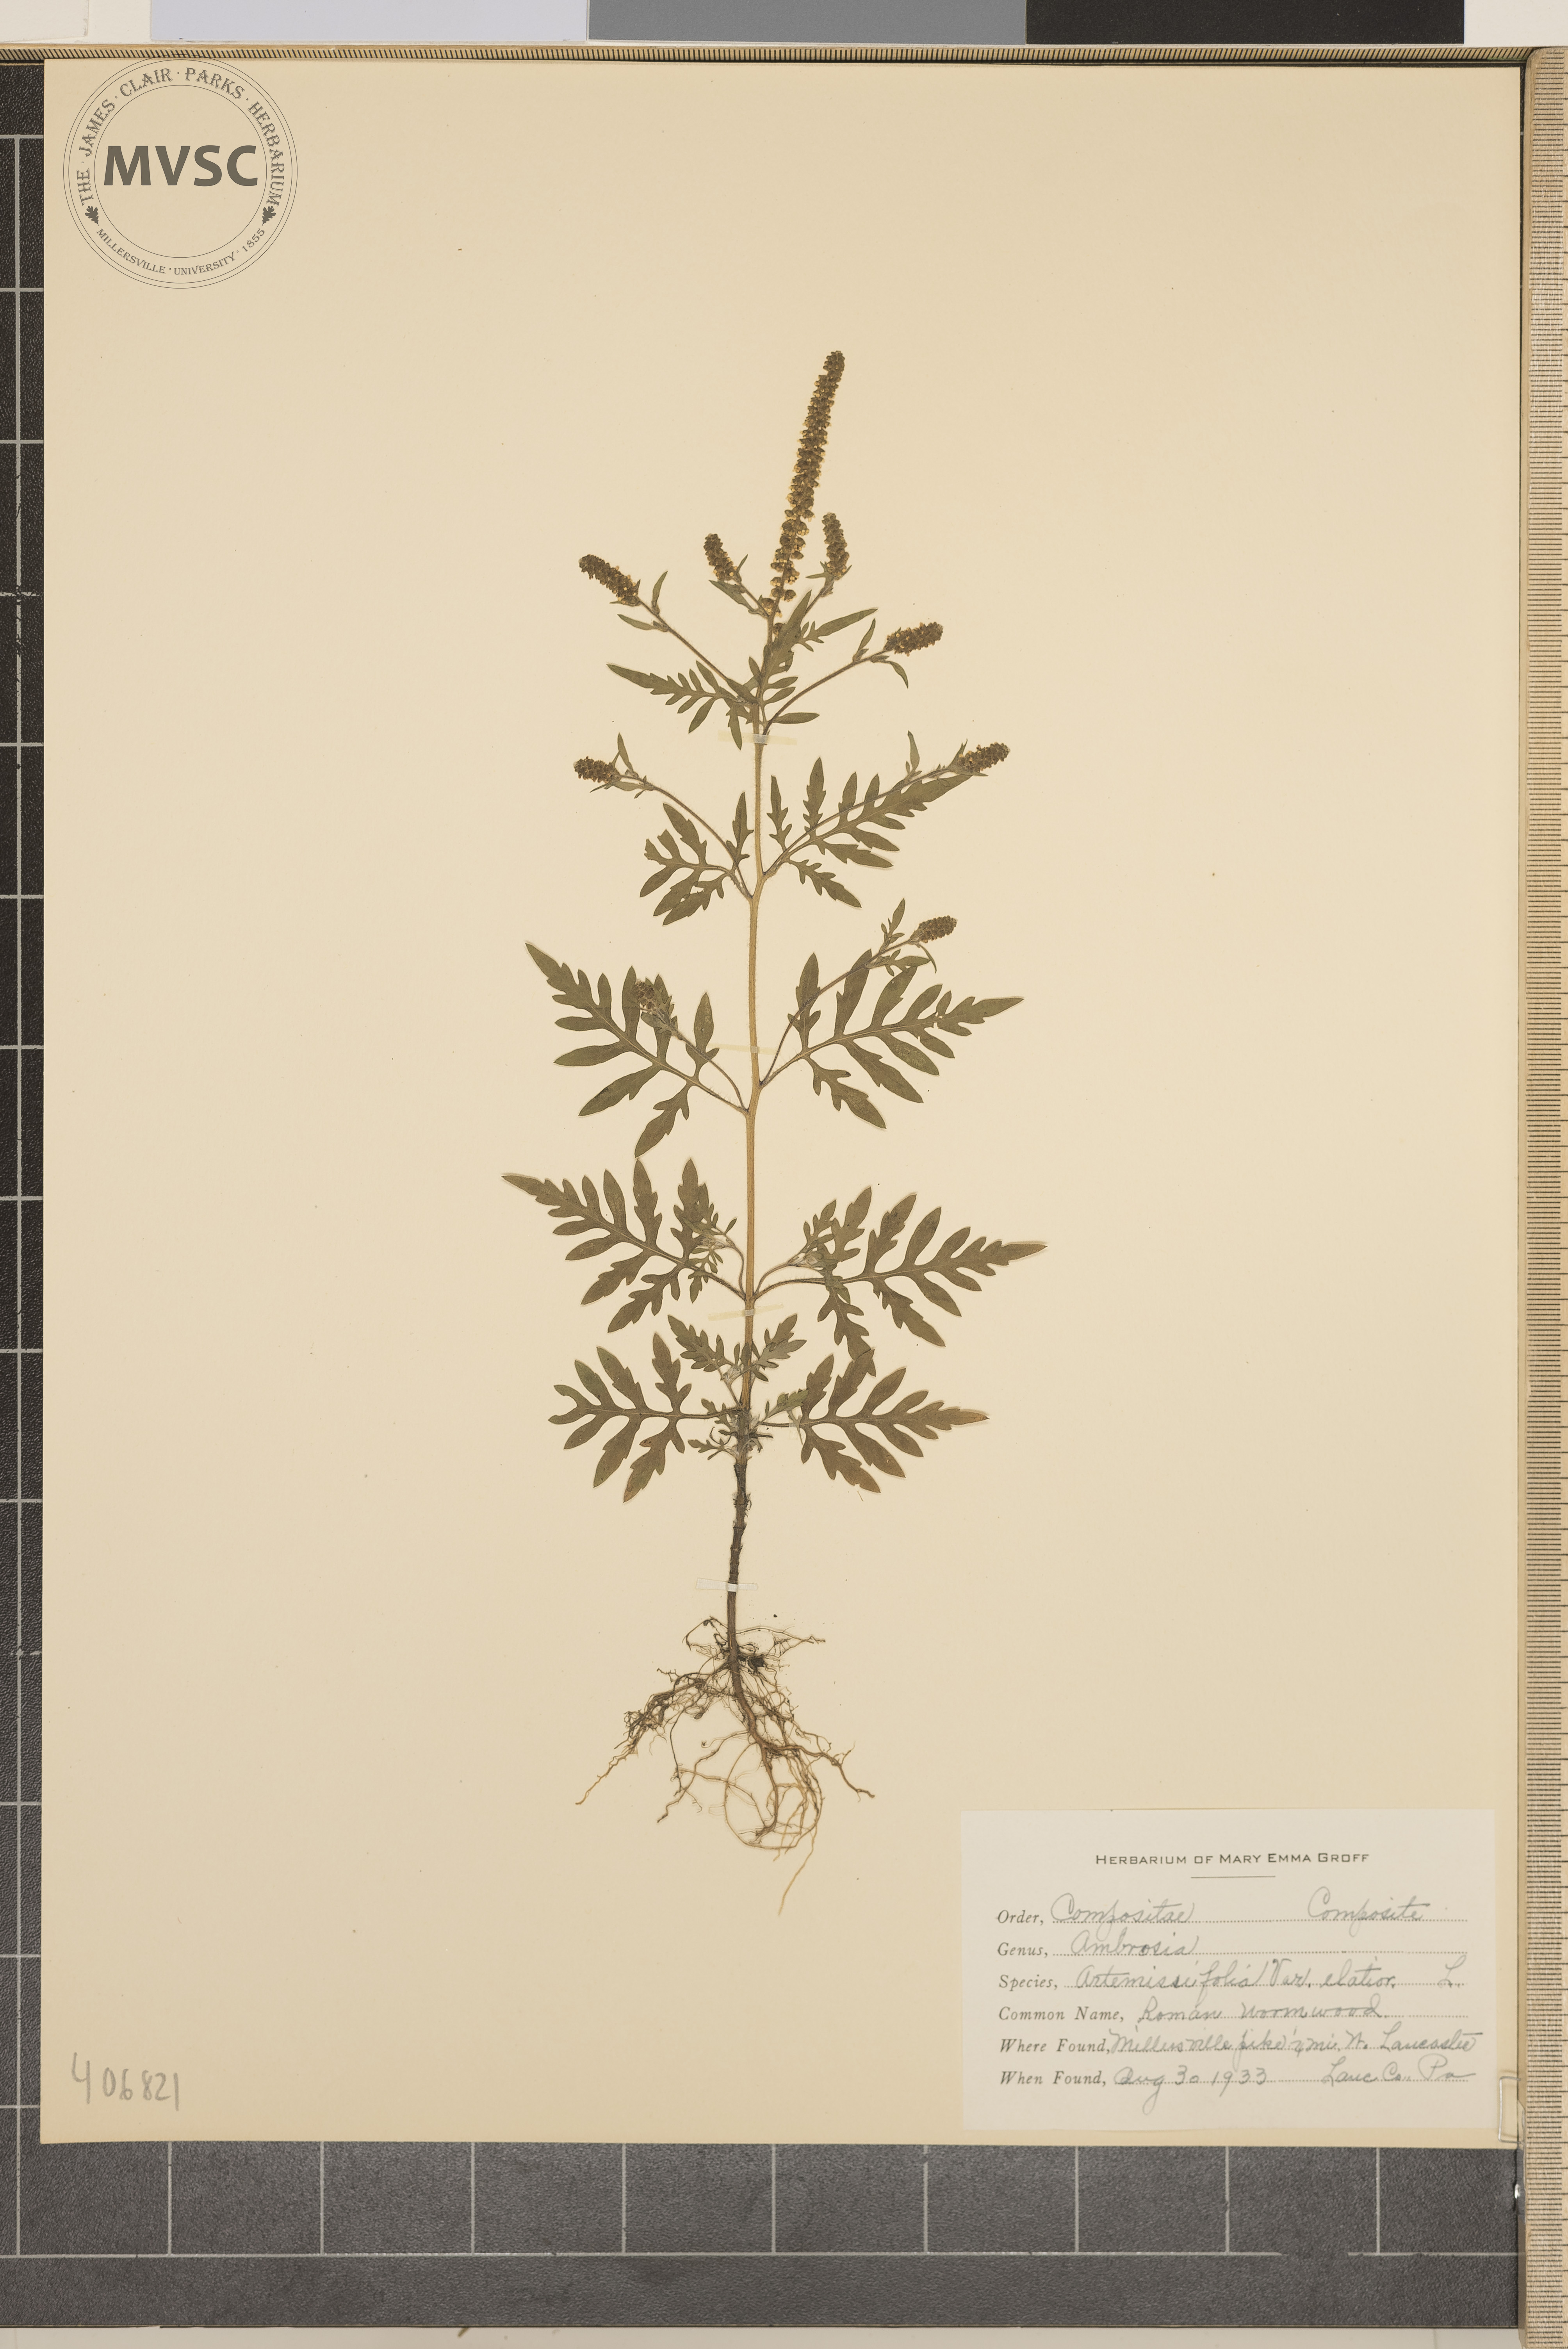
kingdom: Plantae
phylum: Tracheophyta
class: Magnoliopsida
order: Asterales
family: Asteraceae
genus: Ambrosia
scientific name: Ambrosia artemisiifolia
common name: Roman Wormwood
